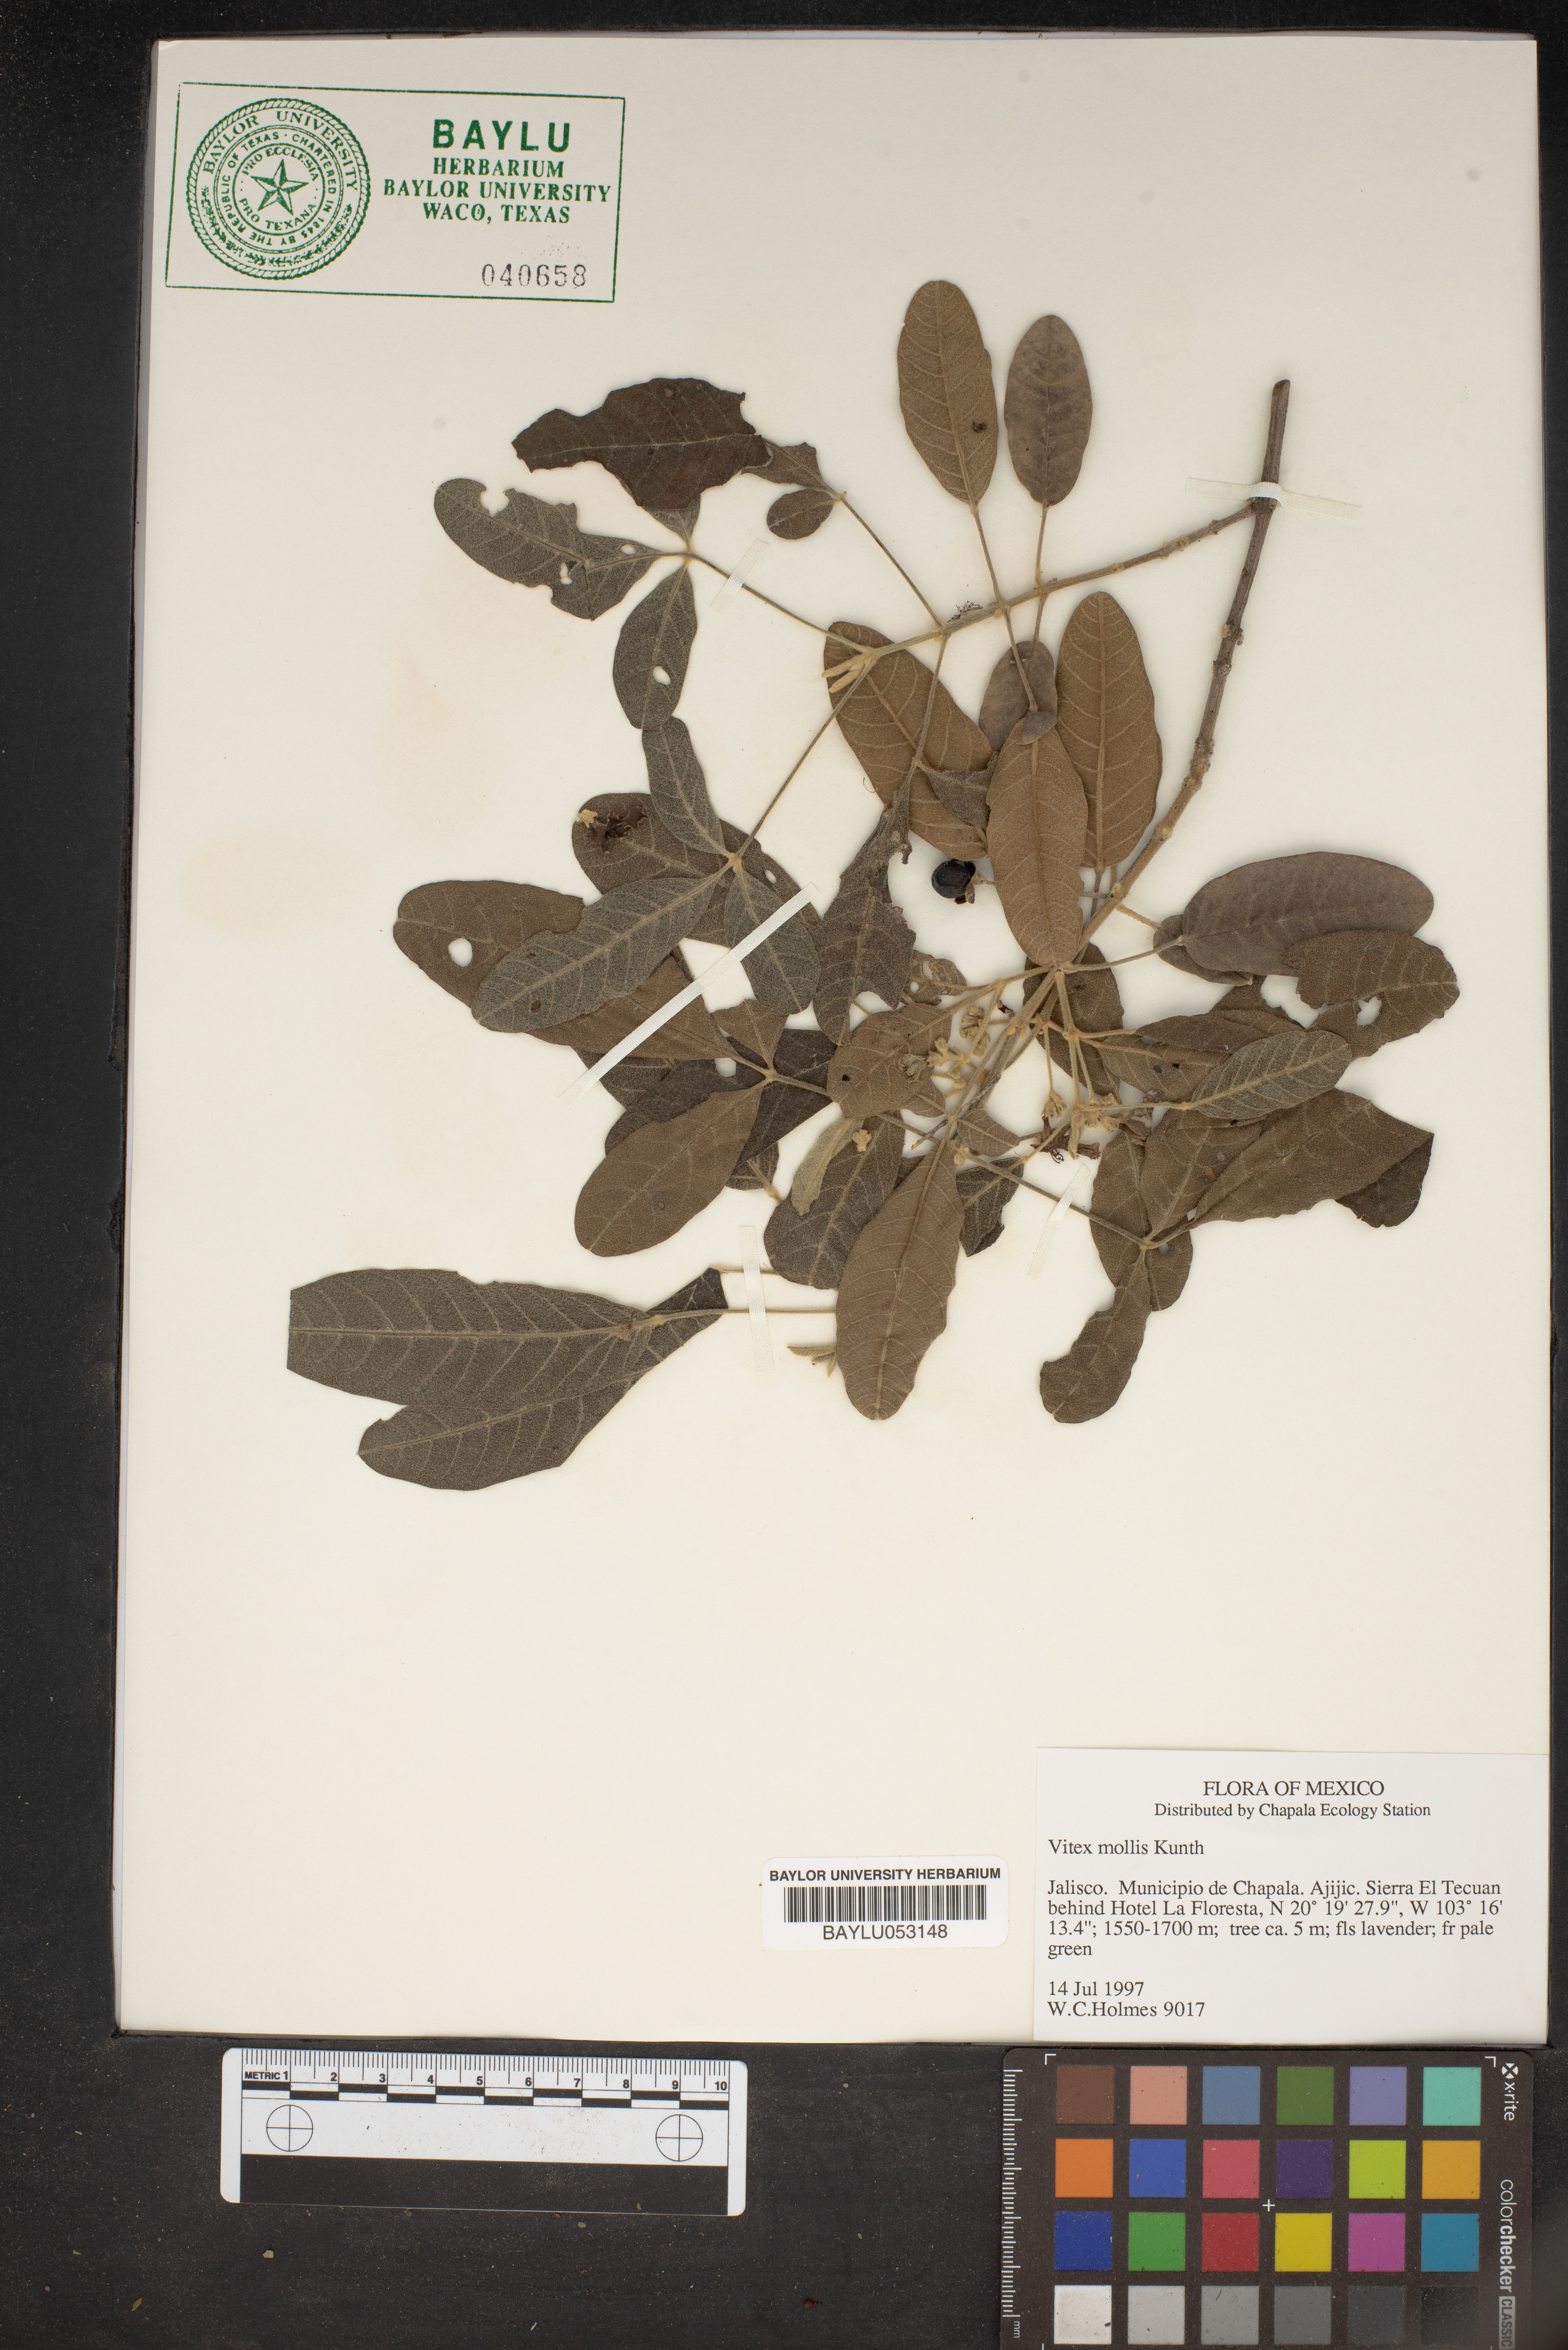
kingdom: Plantae
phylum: Tracheophyta
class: Magnoliopsida
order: Lamiales
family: Lamiaceae
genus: Vitex
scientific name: Vitex mollis
